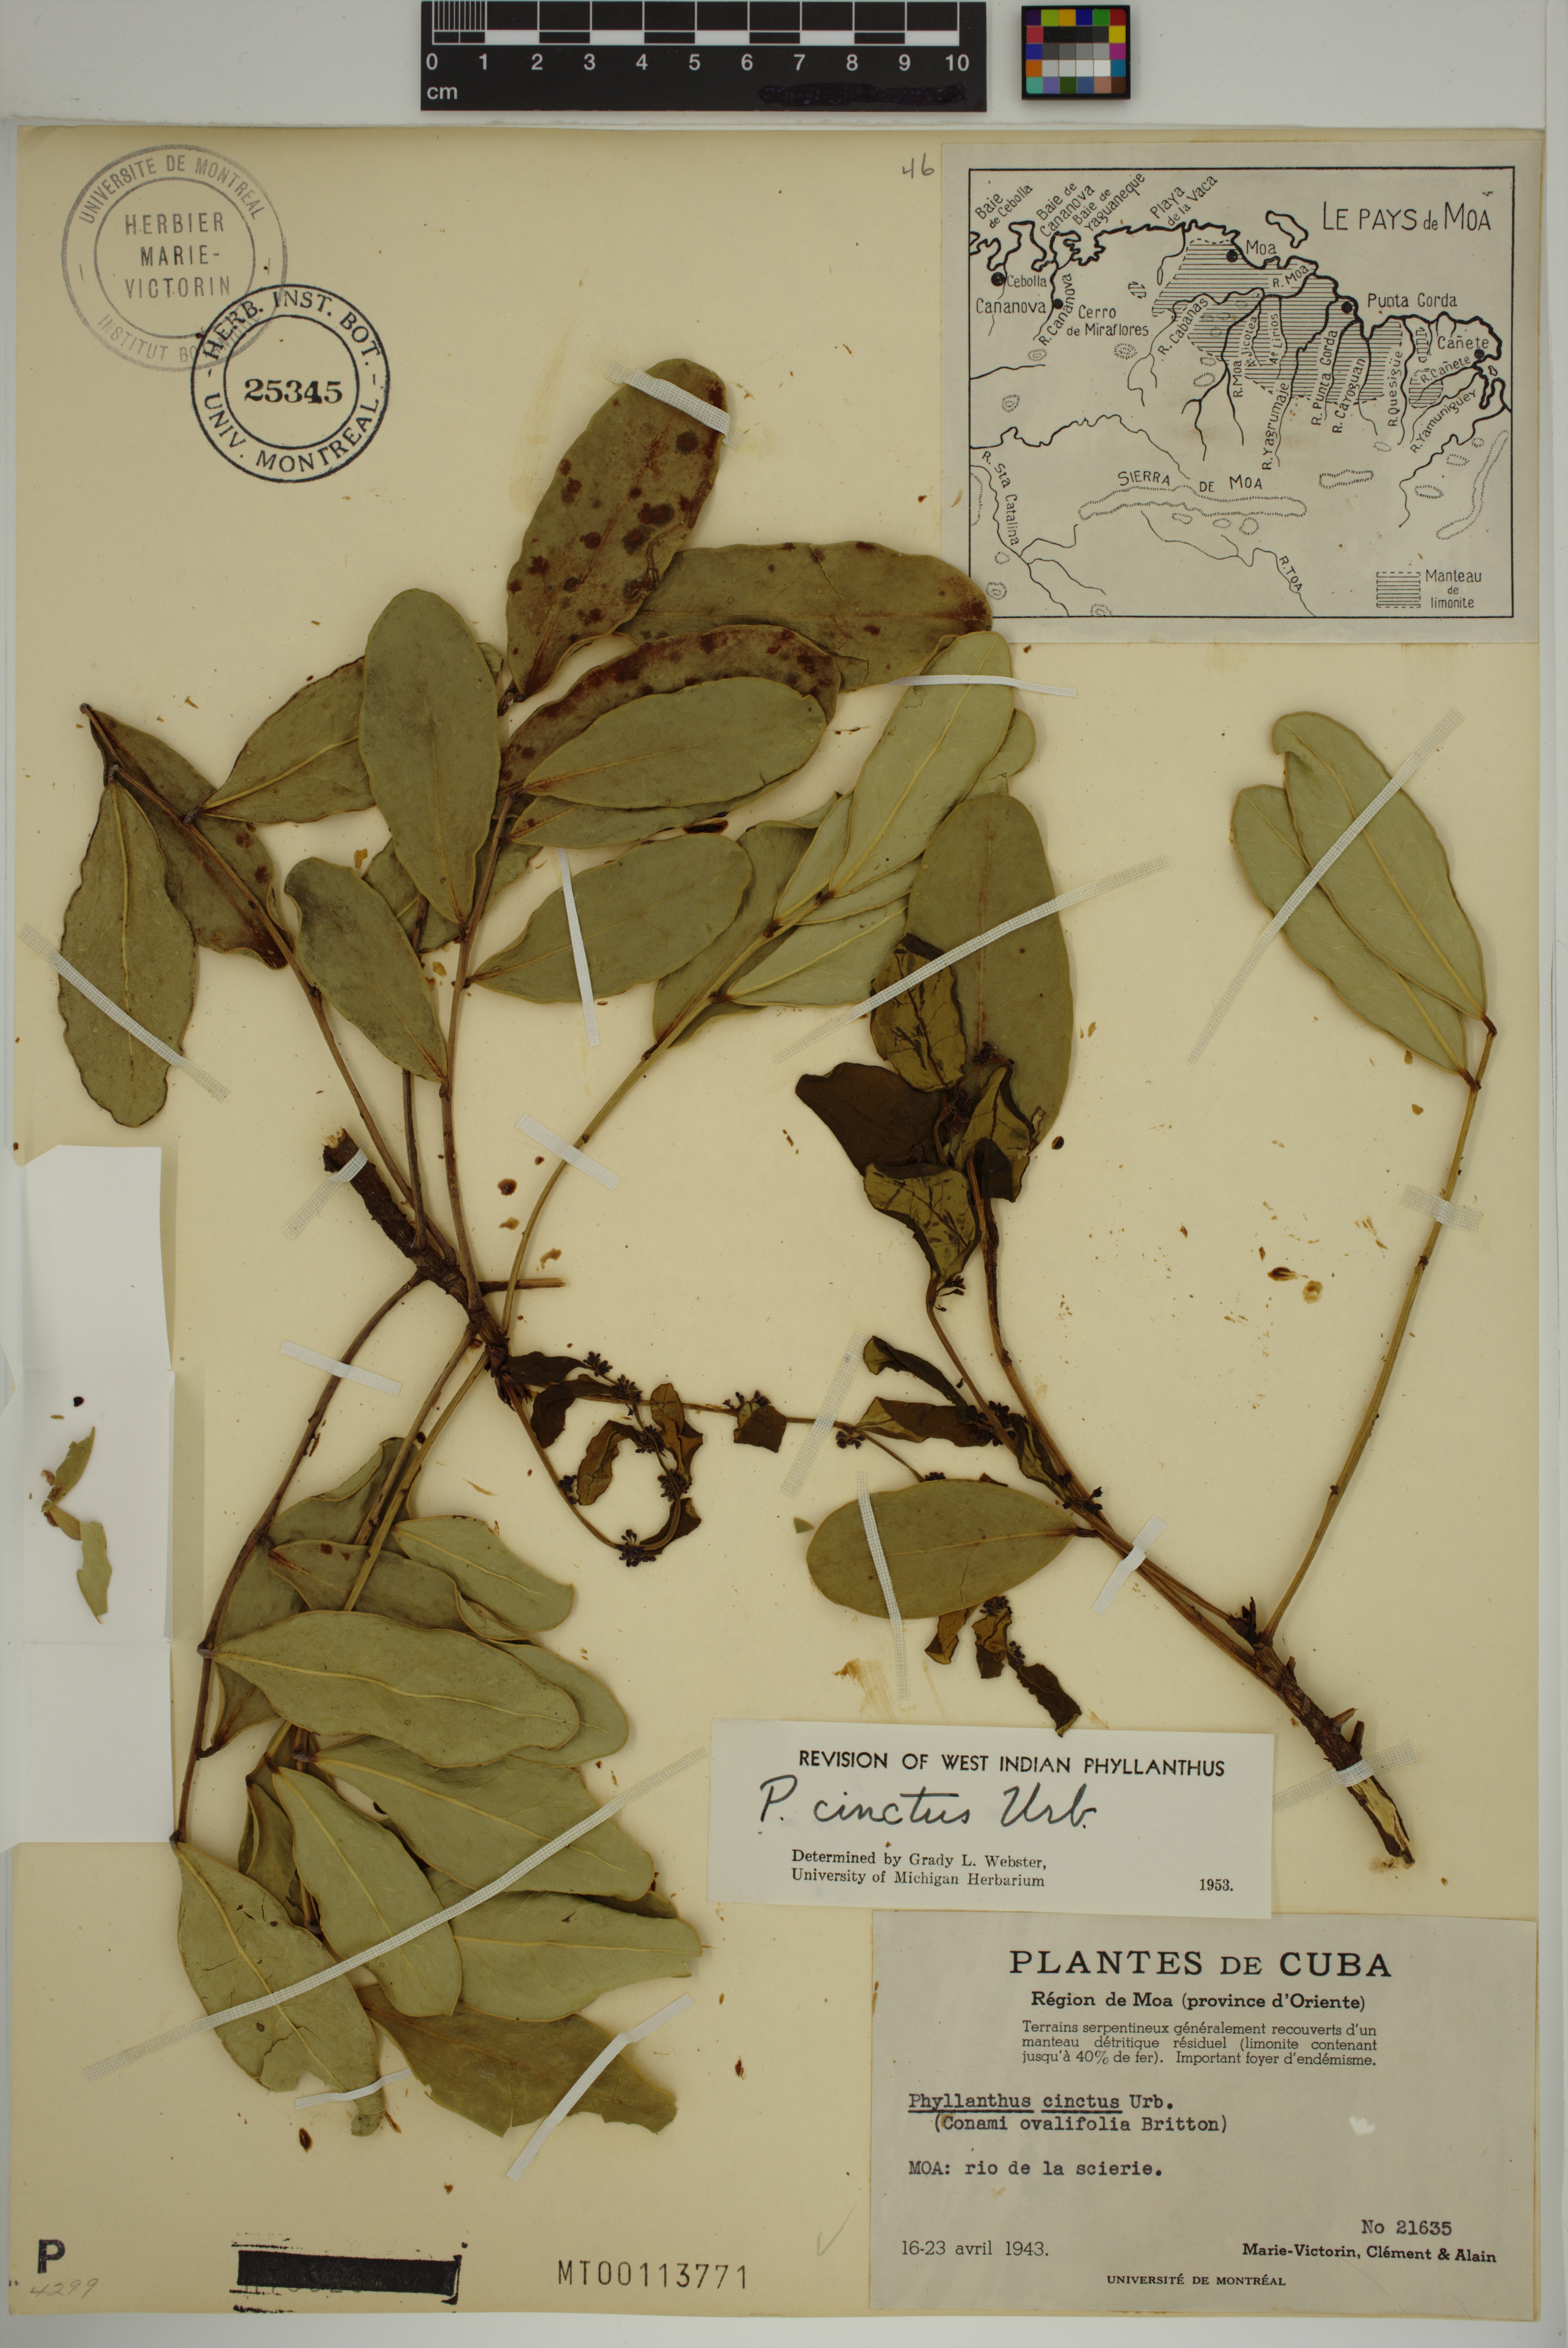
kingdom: Plantae
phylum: Tracheophyta
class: Magnoliopsida
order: Malpighiales
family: Phyllanthaceae
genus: Phyllanthus
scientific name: Phyllanthus cinctus
